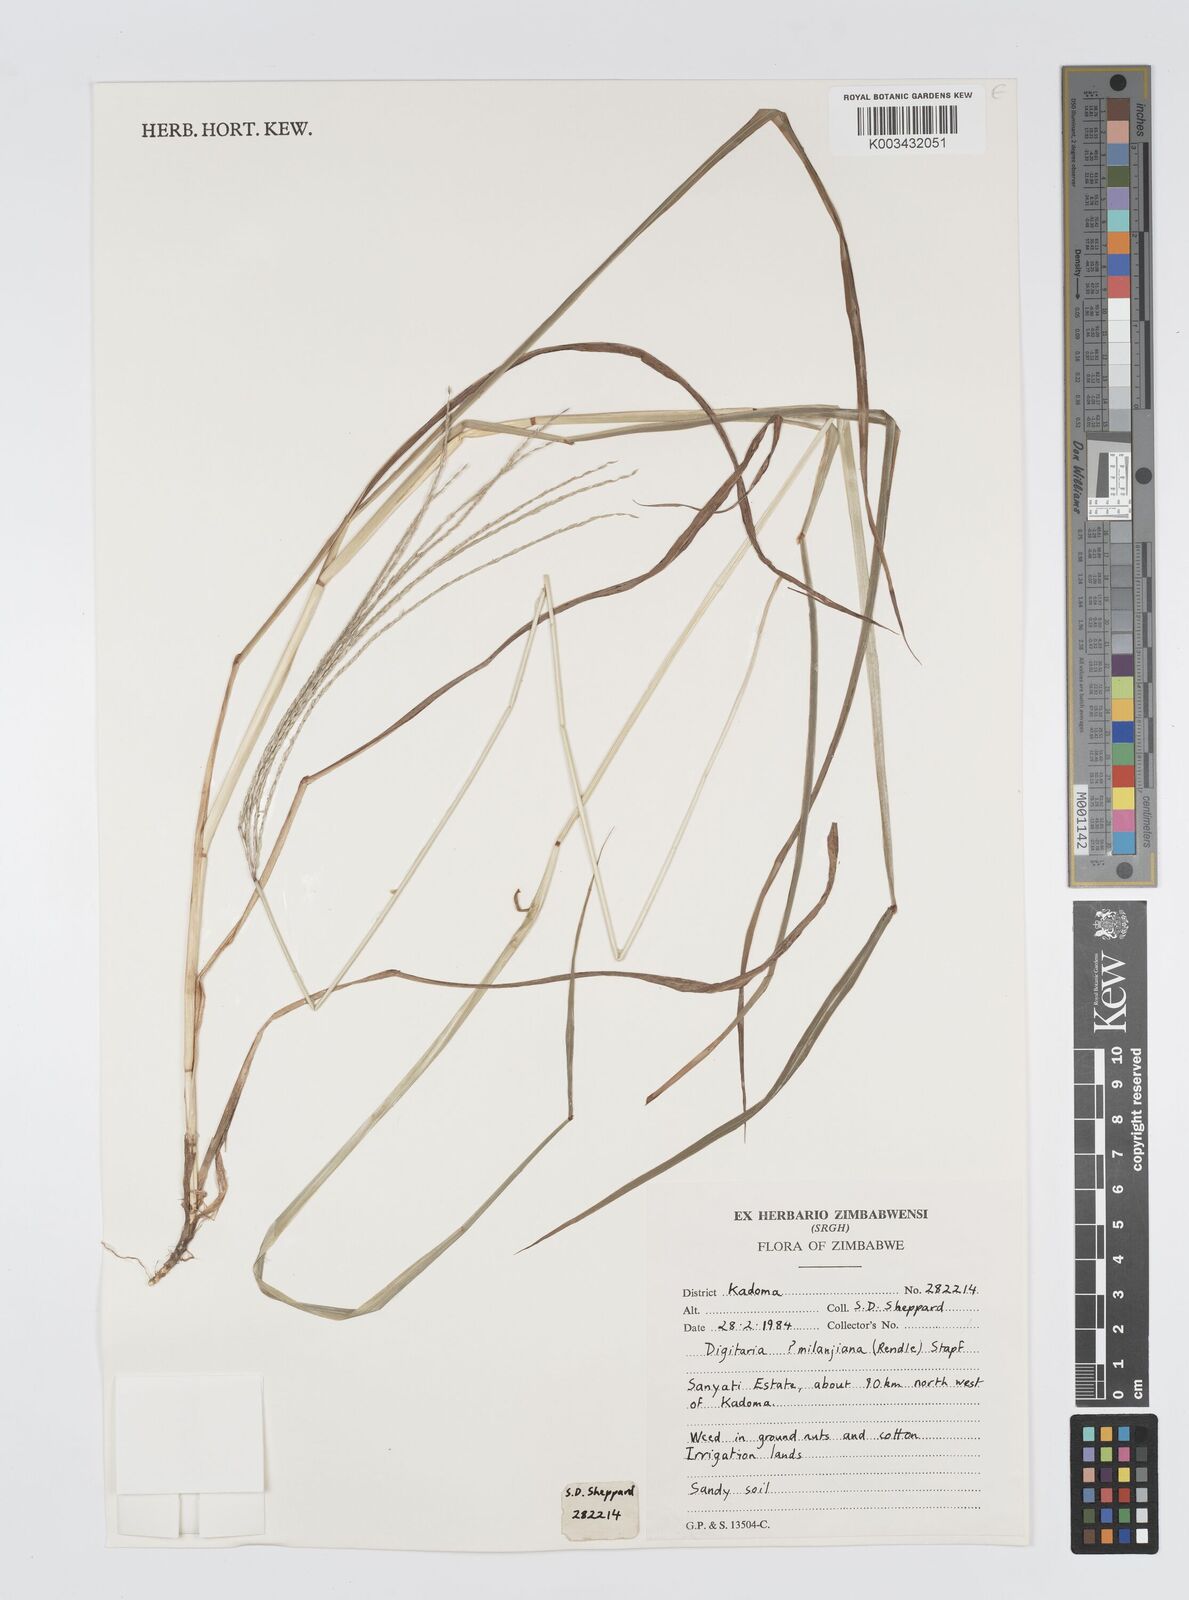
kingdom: Plantae
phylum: Tracheophyta
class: Liliopsida
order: Poales
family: Poaceae
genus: Digitaria
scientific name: Digitaria milanjiana
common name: Madagascar crabgrass
